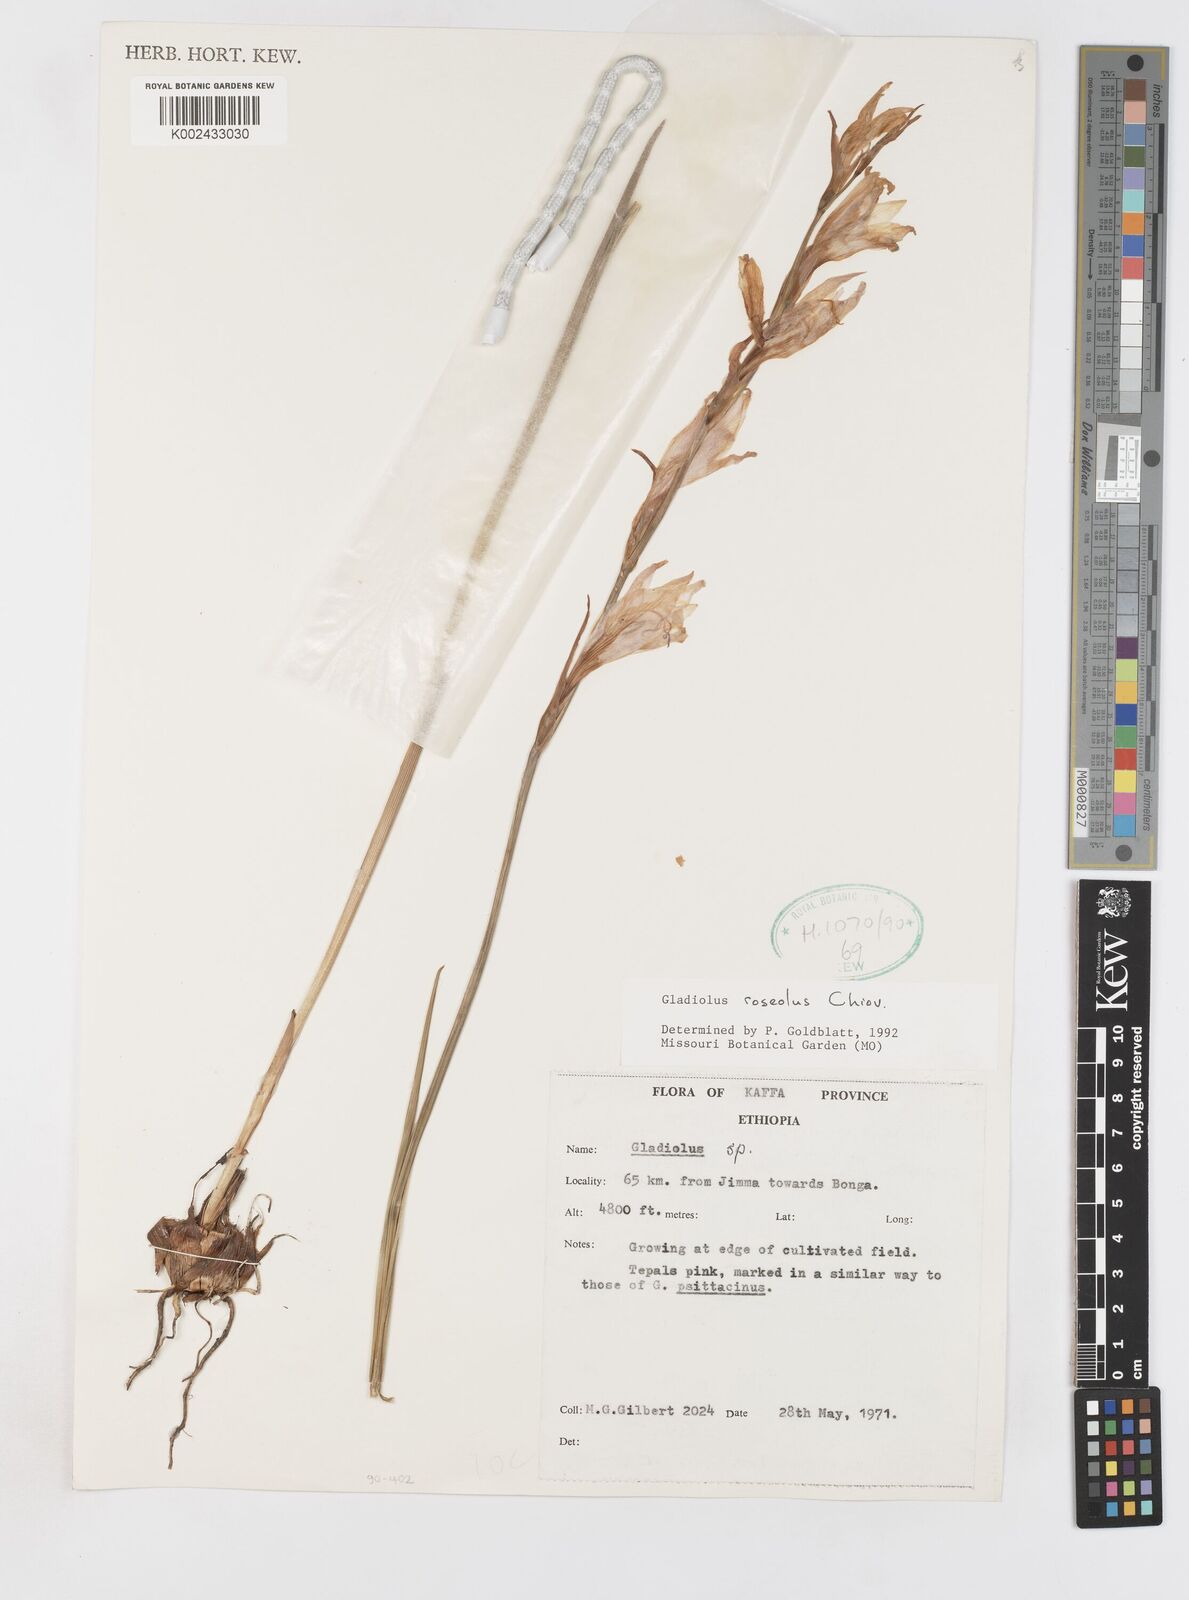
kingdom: Plantae
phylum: Tracheophyta
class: Liliopsida
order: Asparagales
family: Iridaceae
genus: Gladiolus
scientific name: Gladiolus roseolus
